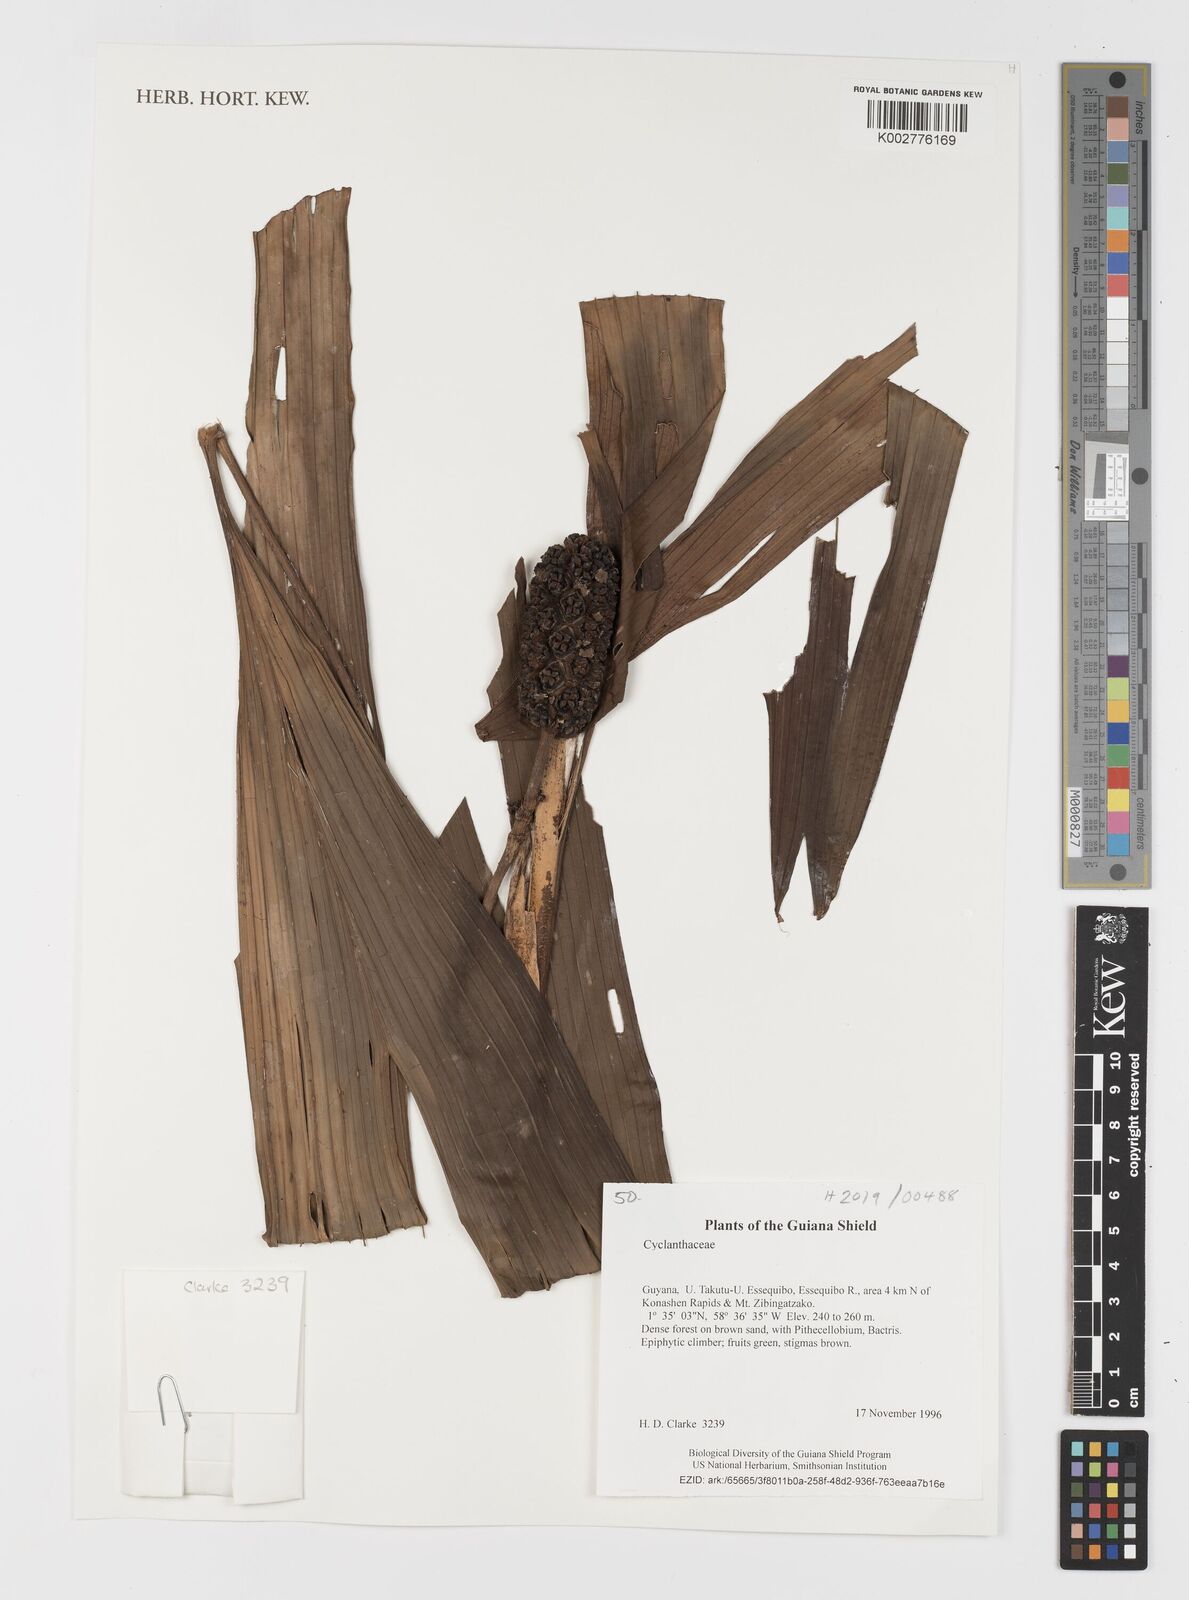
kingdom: Plantae
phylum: Tracheophyta
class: Liliopsida
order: Pandanales
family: Cyclanthaceae
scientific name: Cyclanthaceae
